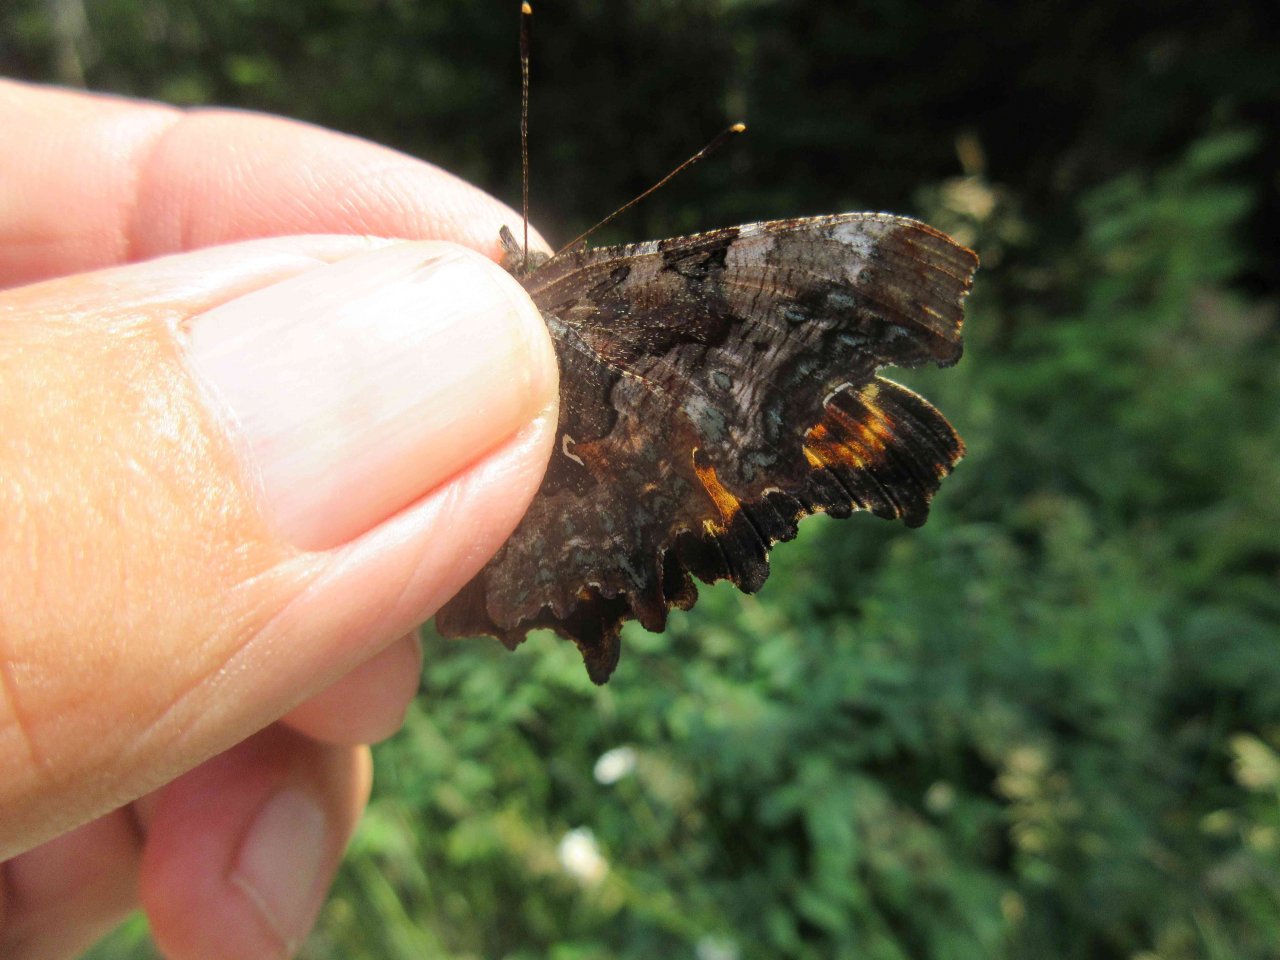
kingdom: Animalia
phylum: Arthropoda
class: Insecta
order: Lepidoptera
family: Nymphalidae
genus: Polygonia
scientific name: Polygonia faunus
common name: Green Comma
